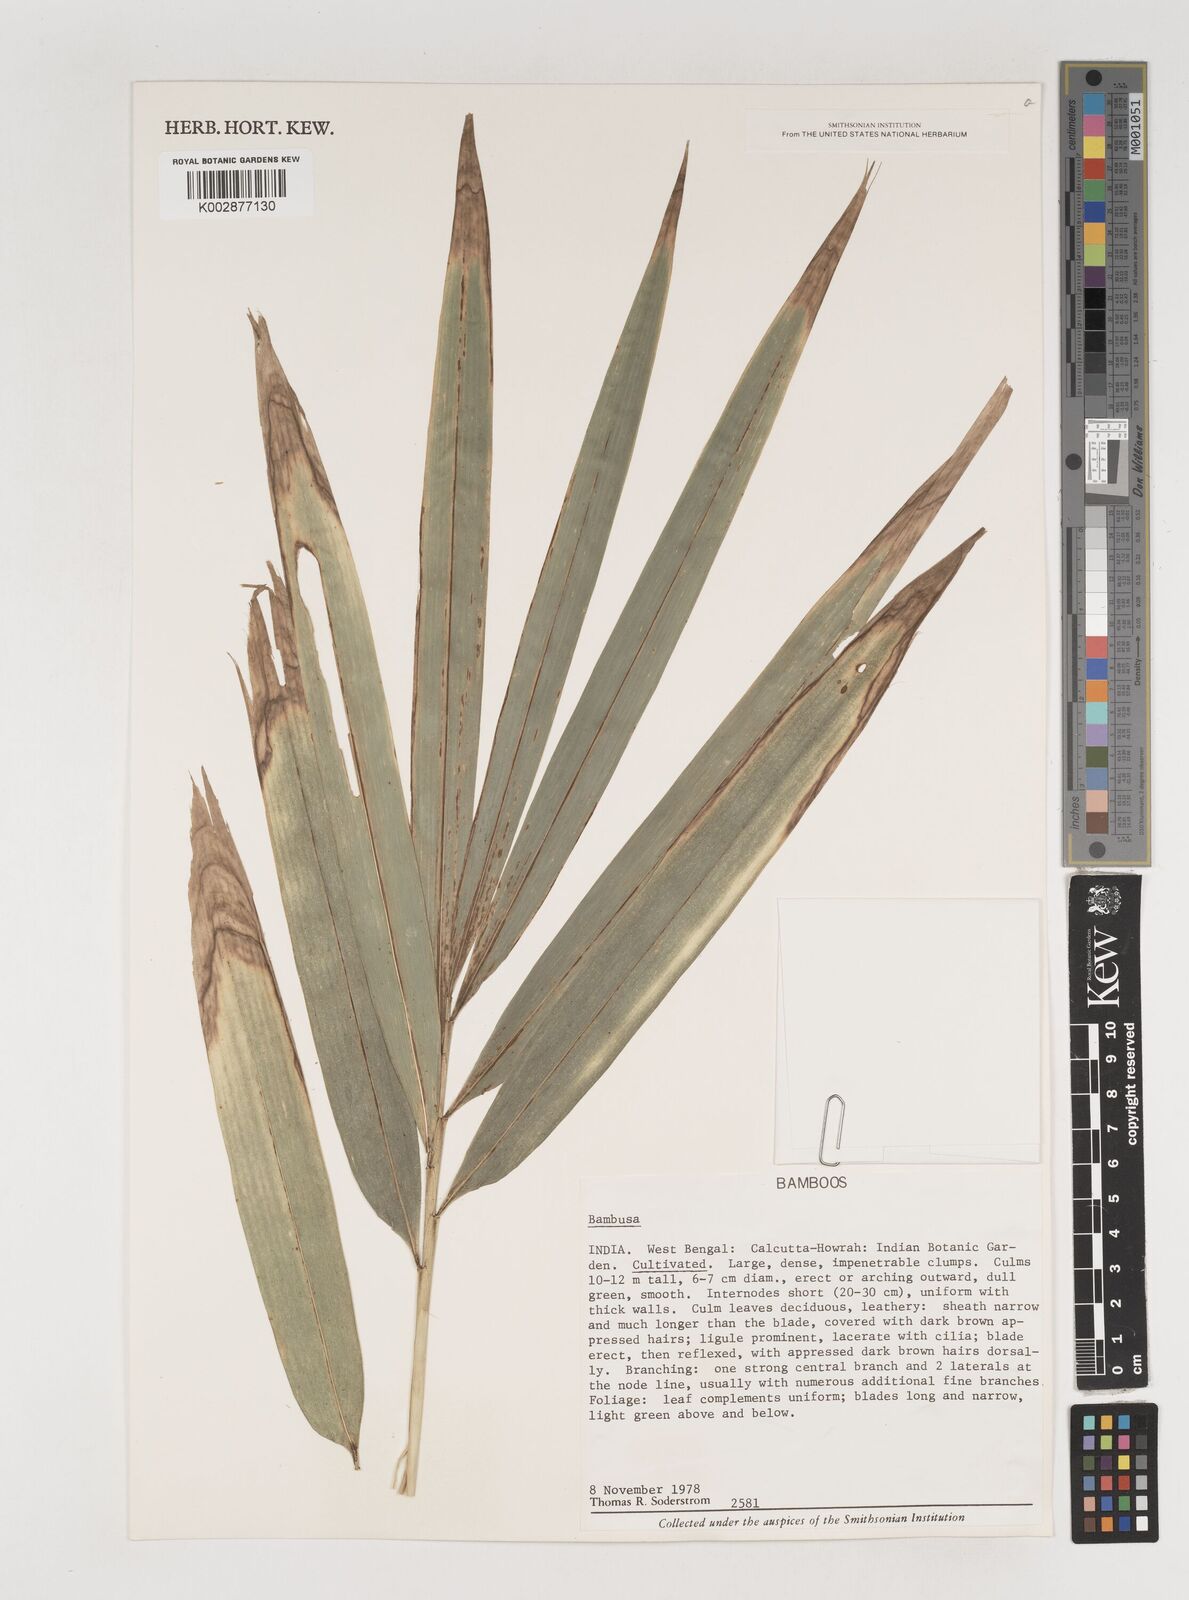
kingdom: Plantae
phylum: Tracheophyta
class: Liliopsida
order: Poales
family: Poaceae
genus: Bambusa
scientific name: Bambusa
